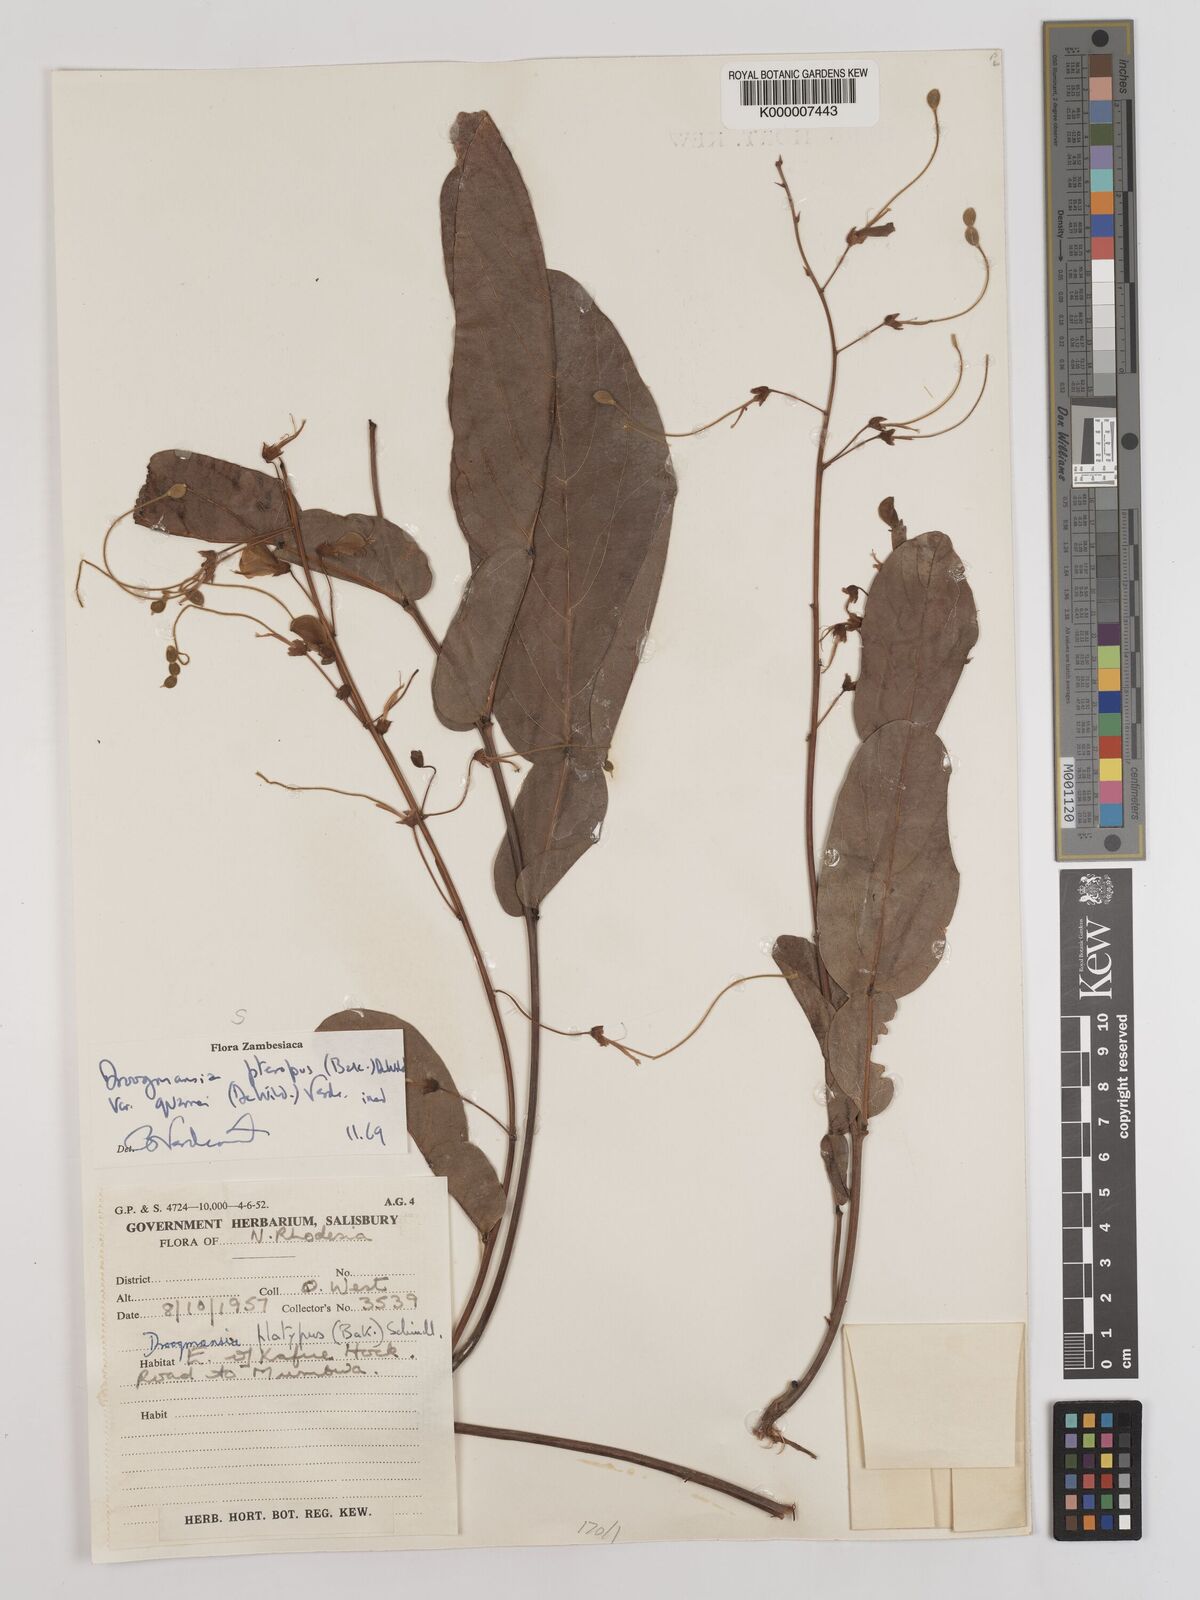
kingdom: Plantae
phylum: Tracheophyta
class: Magnoliopsida
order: Fabales
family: Fabaceae
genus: Droogmansia
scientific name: Droogmansia pteropus
